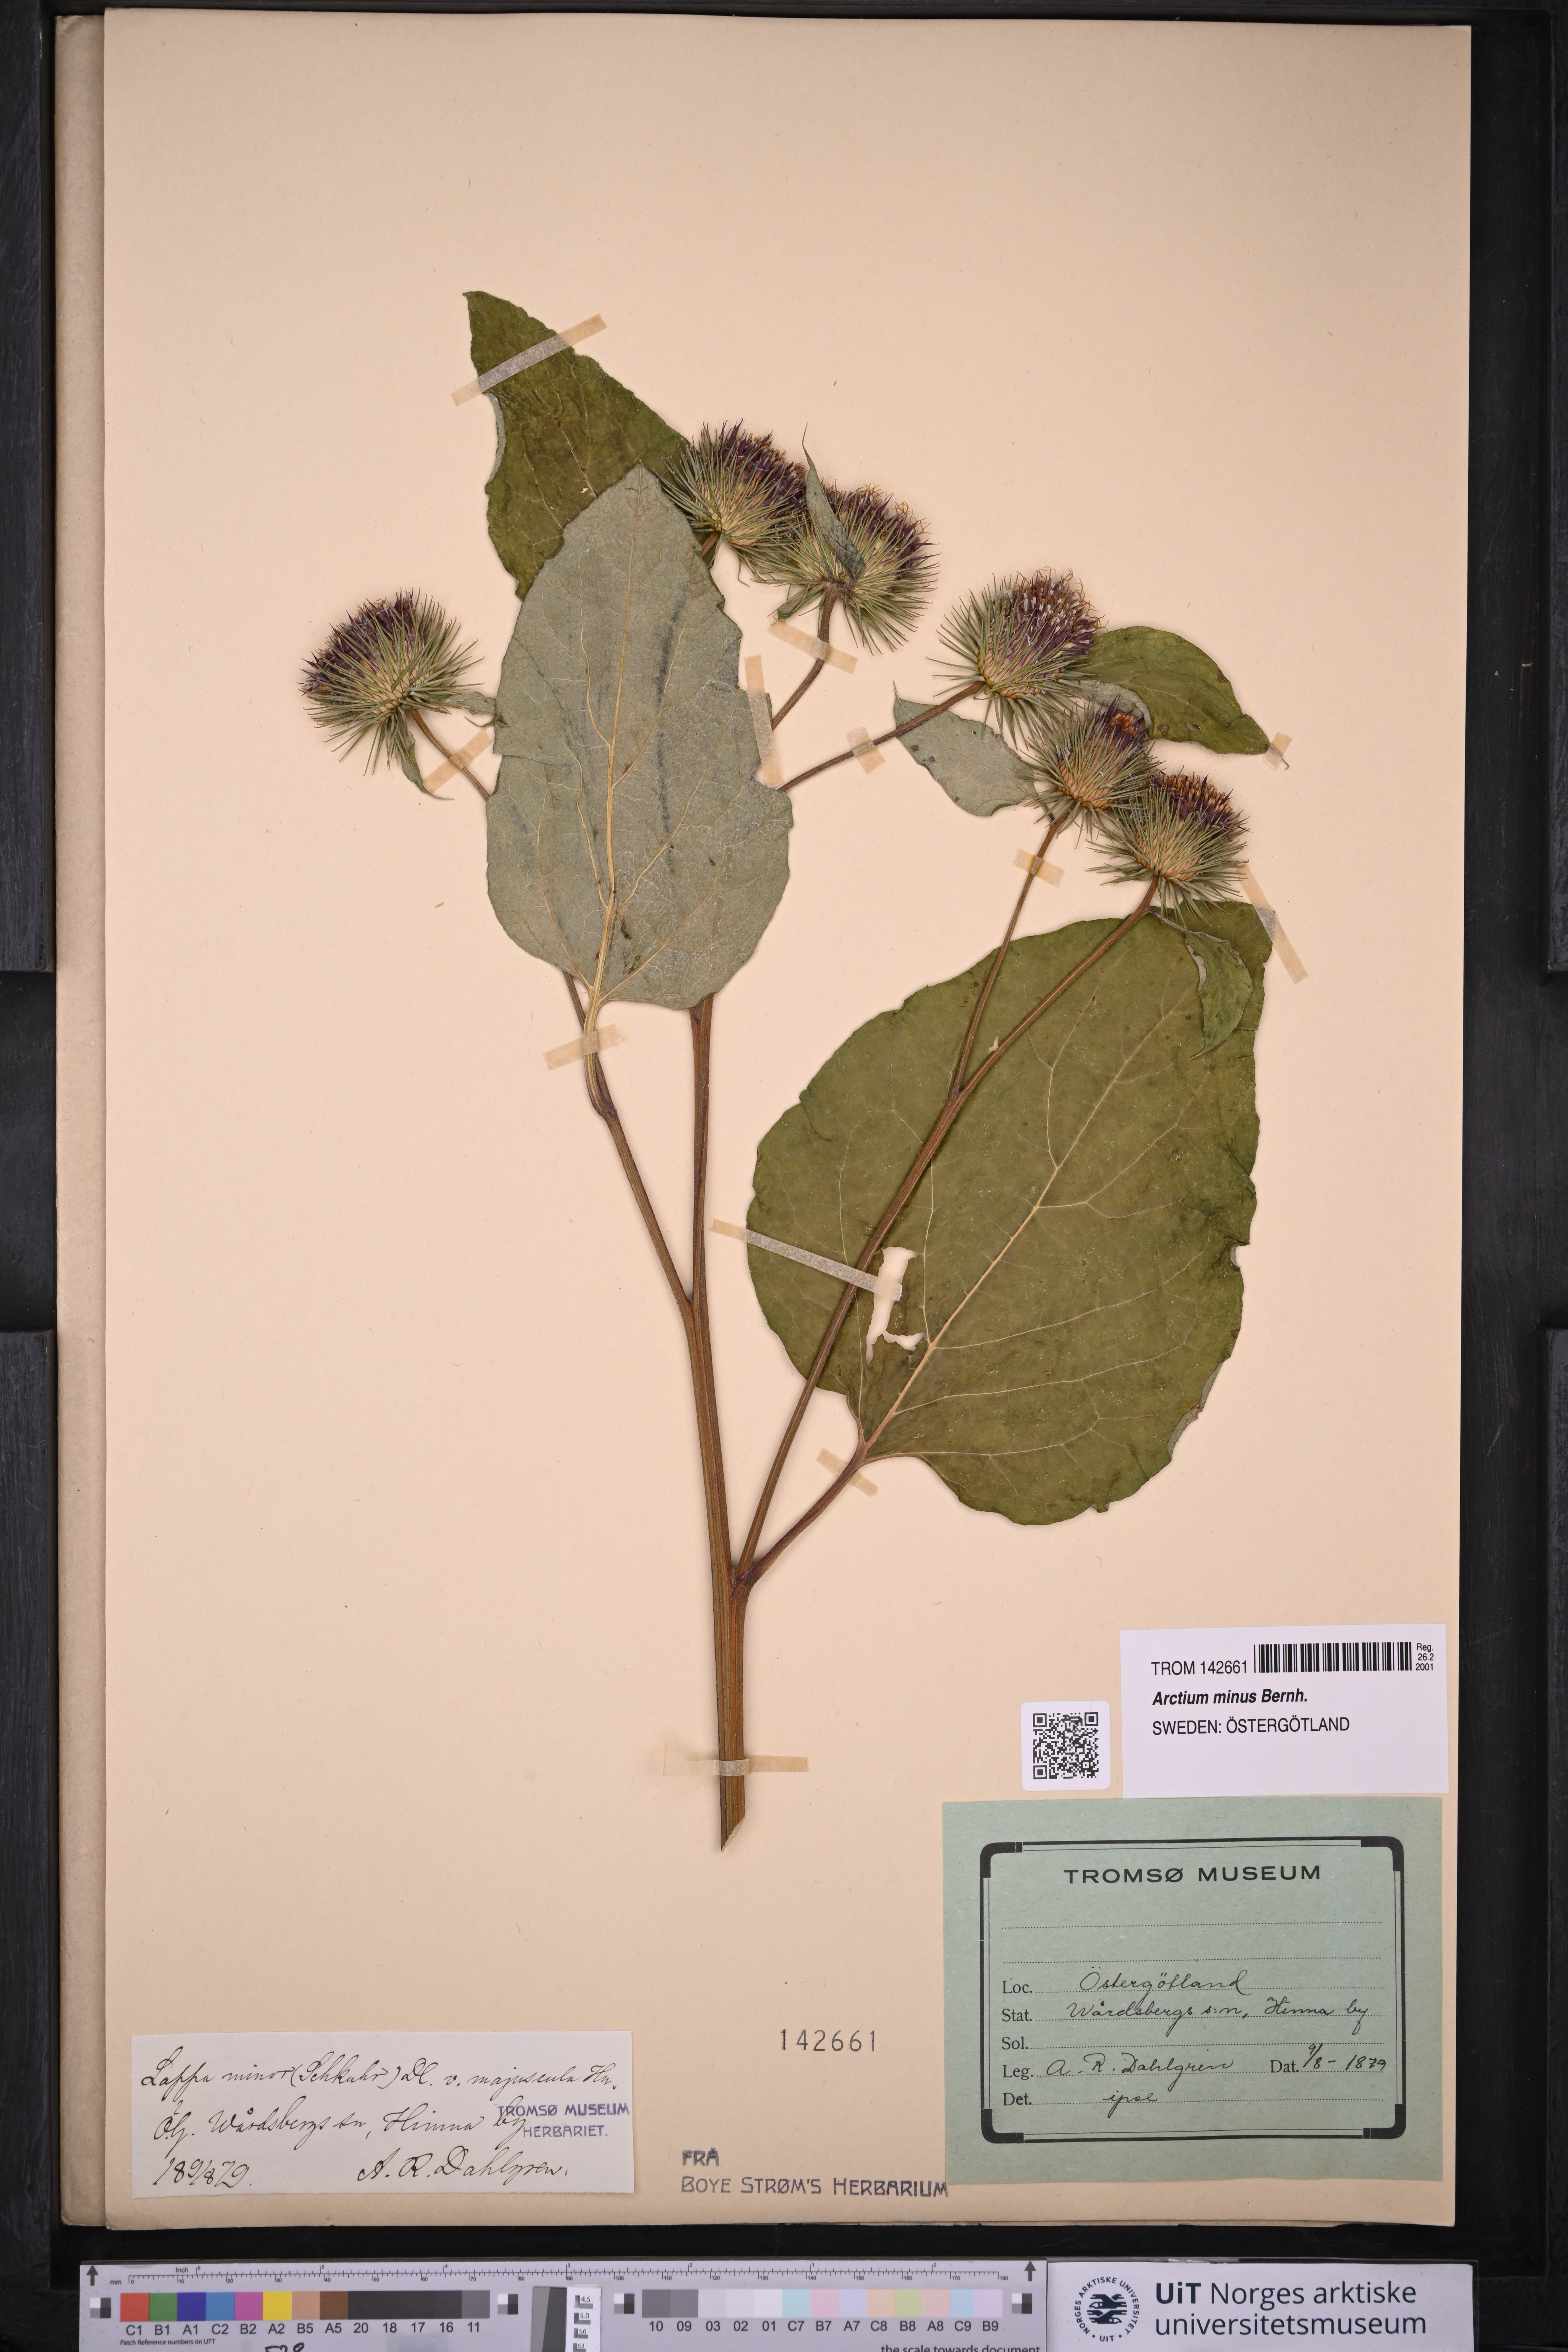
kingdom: Plantae
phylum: Tracheophyta
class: Magnoliopsida
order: Asterales
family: Asteraceae
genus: Arctium
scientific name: Arctium minus
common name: Lesser burdock
